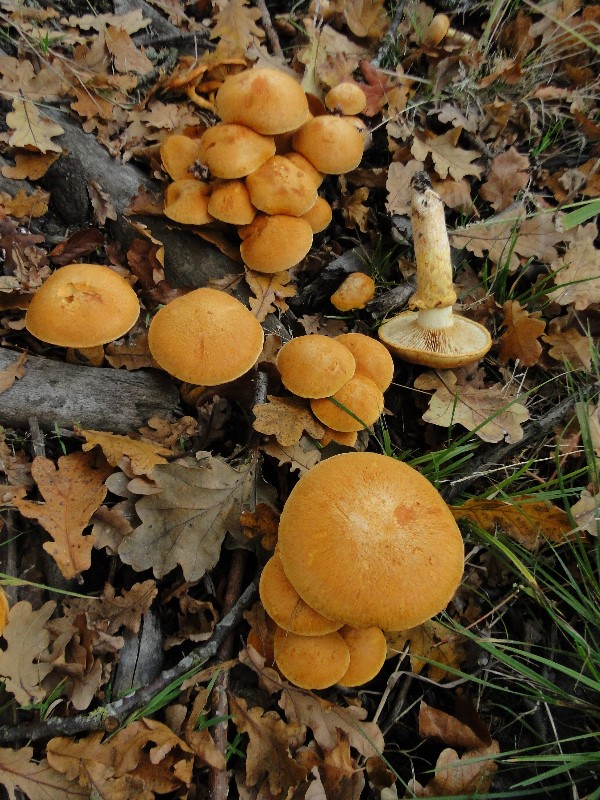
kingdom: Fungi
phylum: Basidiomycota
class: Agaricomycetes
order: Agaricales
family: Tricholomataceae
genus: Phaeolepiota
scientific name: Phaeolepiota aurea
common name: gyldenhat
